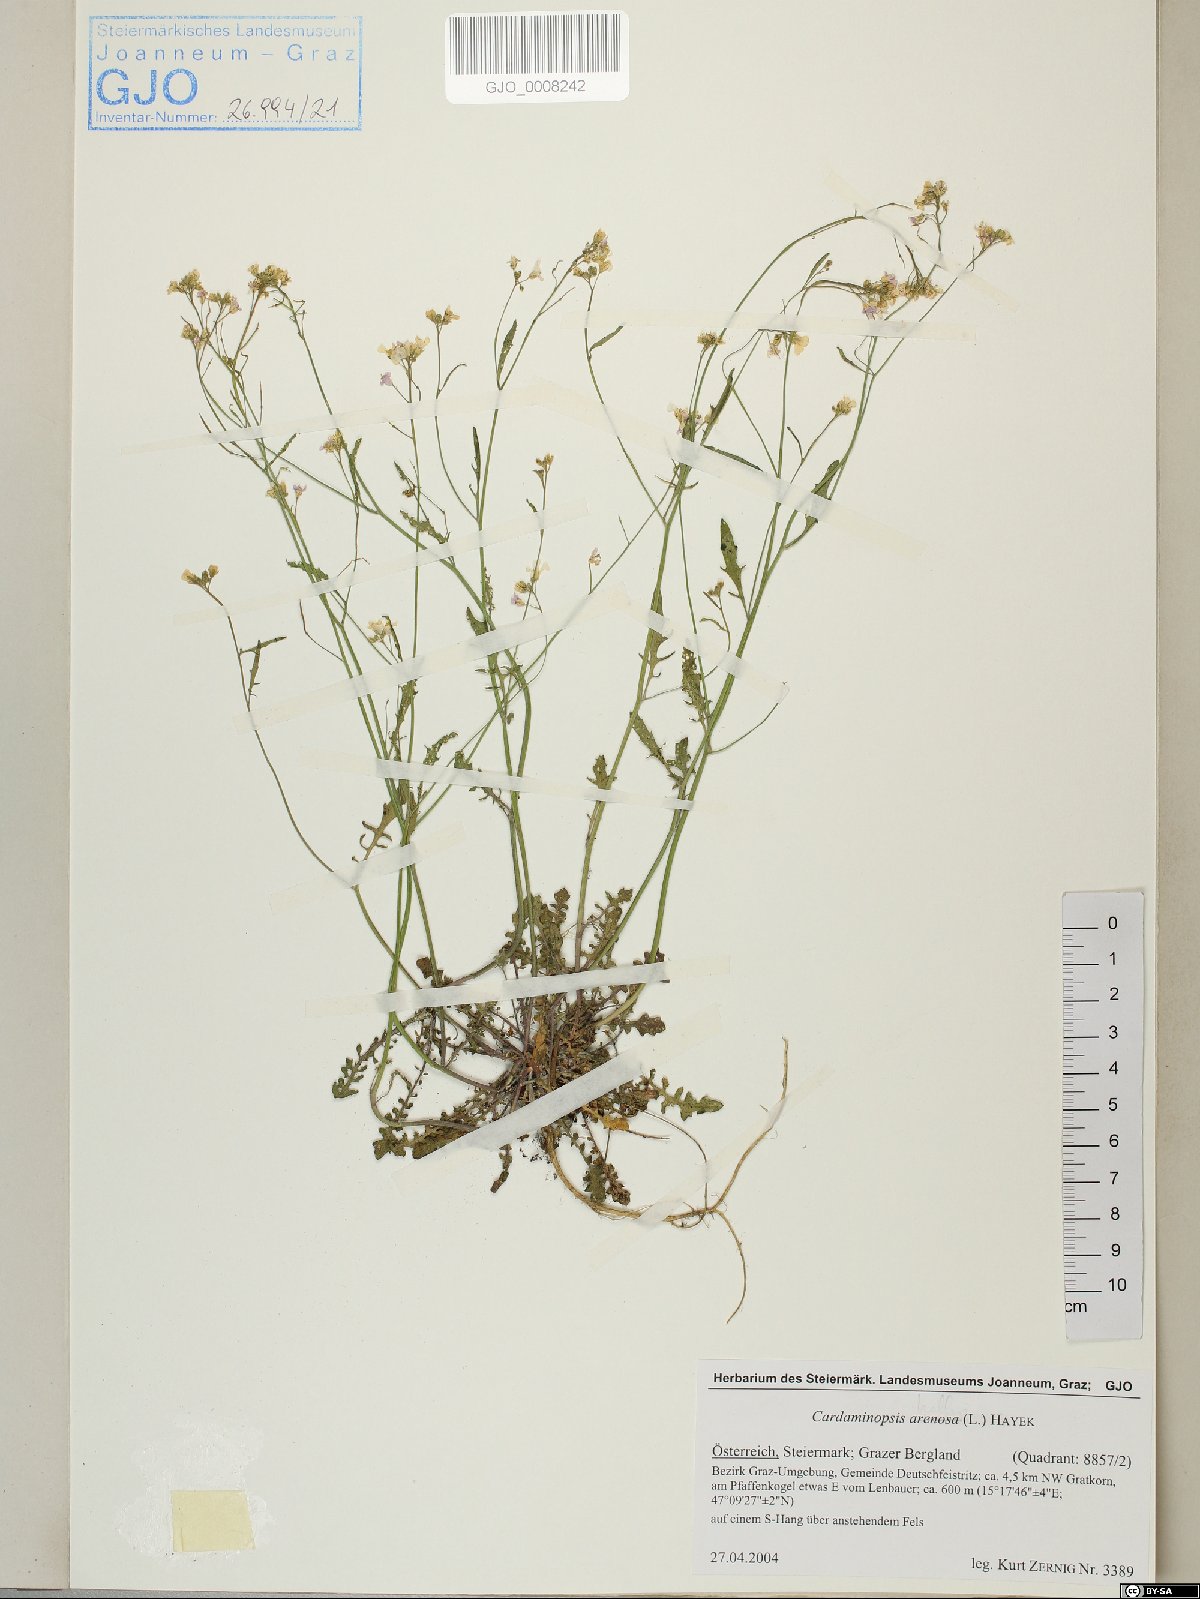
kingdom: Plantae
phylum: Tracheophyta
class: Magnoliopsida
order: Brassicales
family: Brassicaceae
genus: Arabidopsis
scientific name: Arabidopsis arenosa
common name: Sand rock-cress
